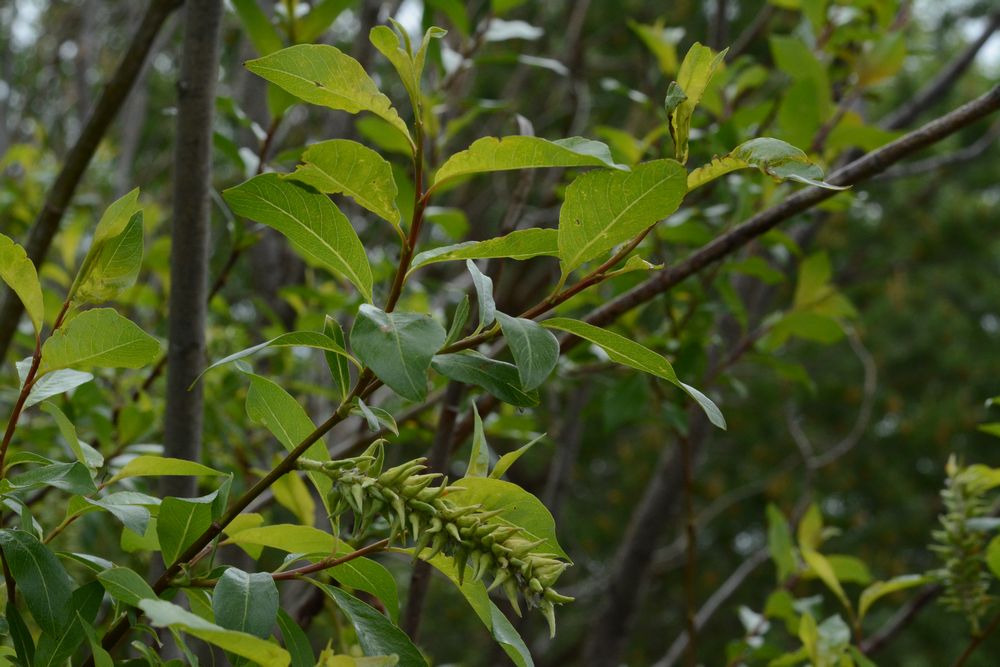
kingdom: Plantae
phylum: Tracheophyta
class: Magnoliopsida
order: Malpighiales
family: Salicaceae
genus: Salix
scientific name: Salix
